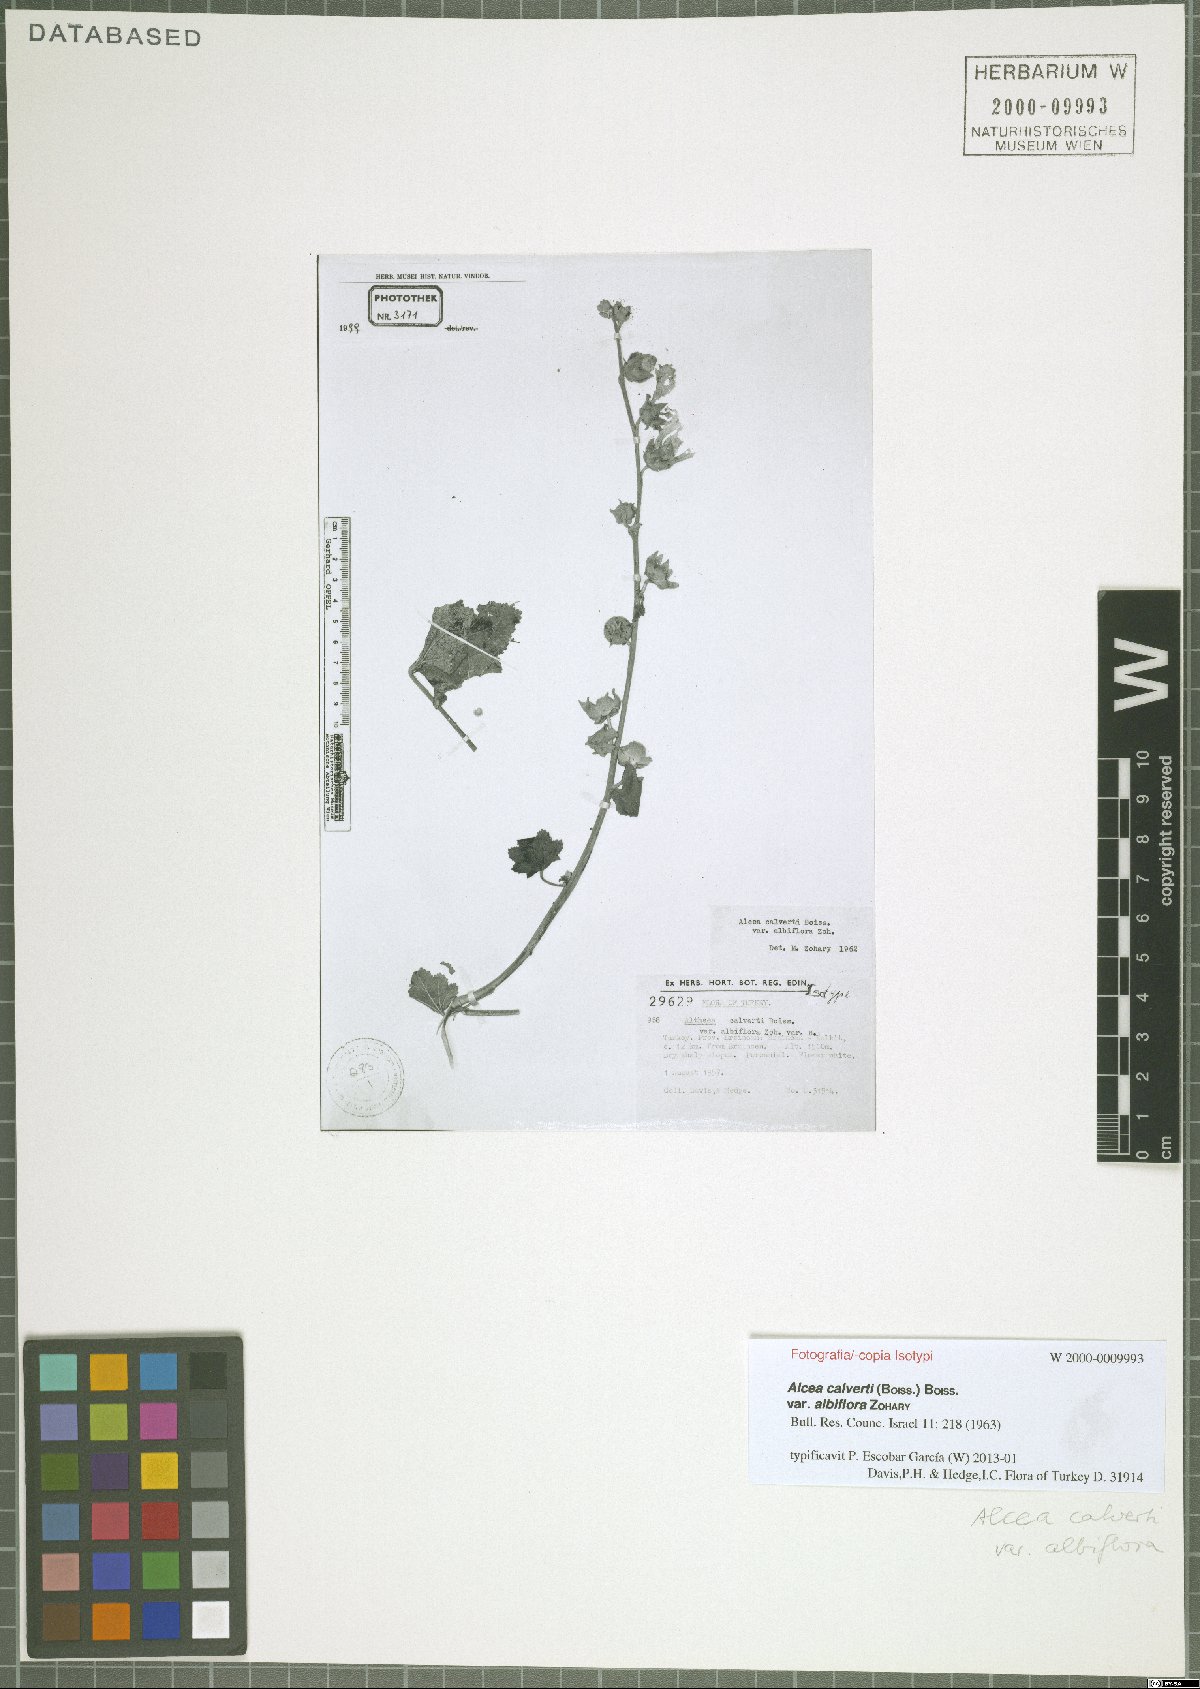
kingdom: Plantae
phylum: Tracheophyta
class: Magnoliopsida
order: Malvales
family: Malvaceae
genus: Alcea
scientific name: Alcea calverti
